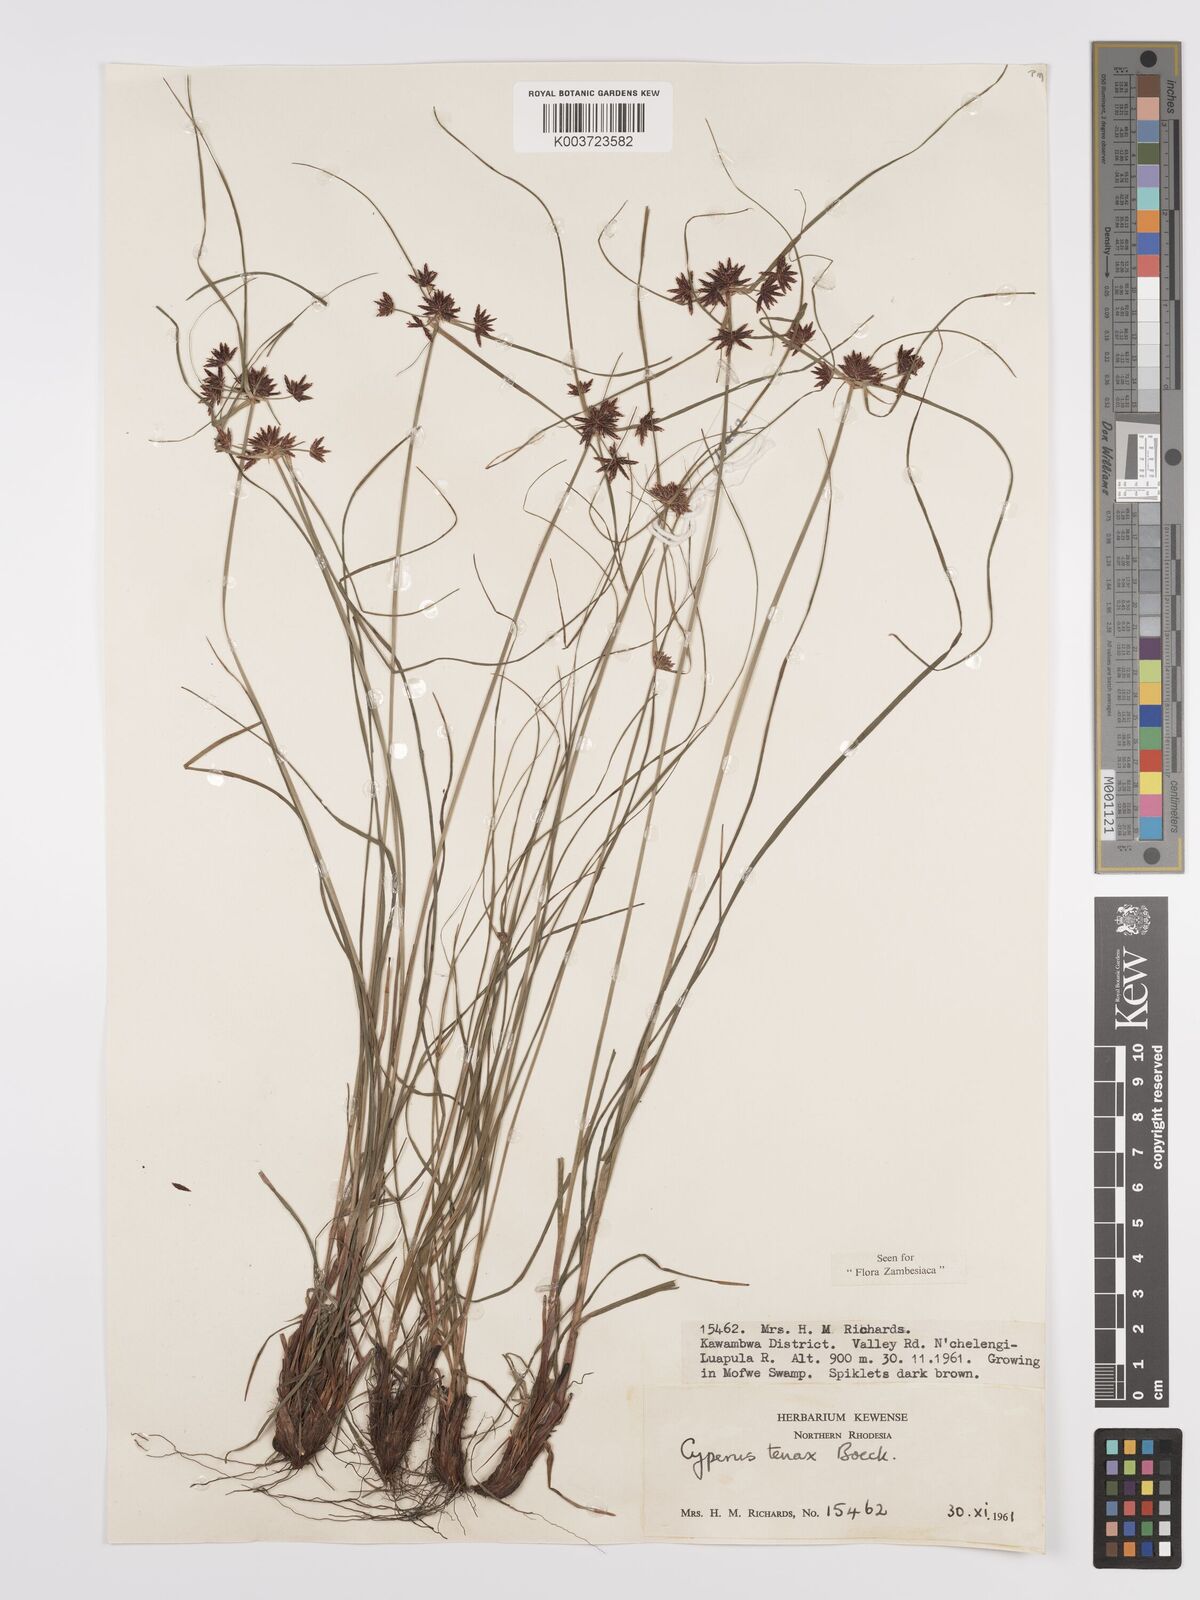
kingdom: Plantae
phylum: Tracheophyta
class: Liliopsida
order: Poales
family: Cyperaceae
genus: Cyperus
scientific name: Cyperus tenax
